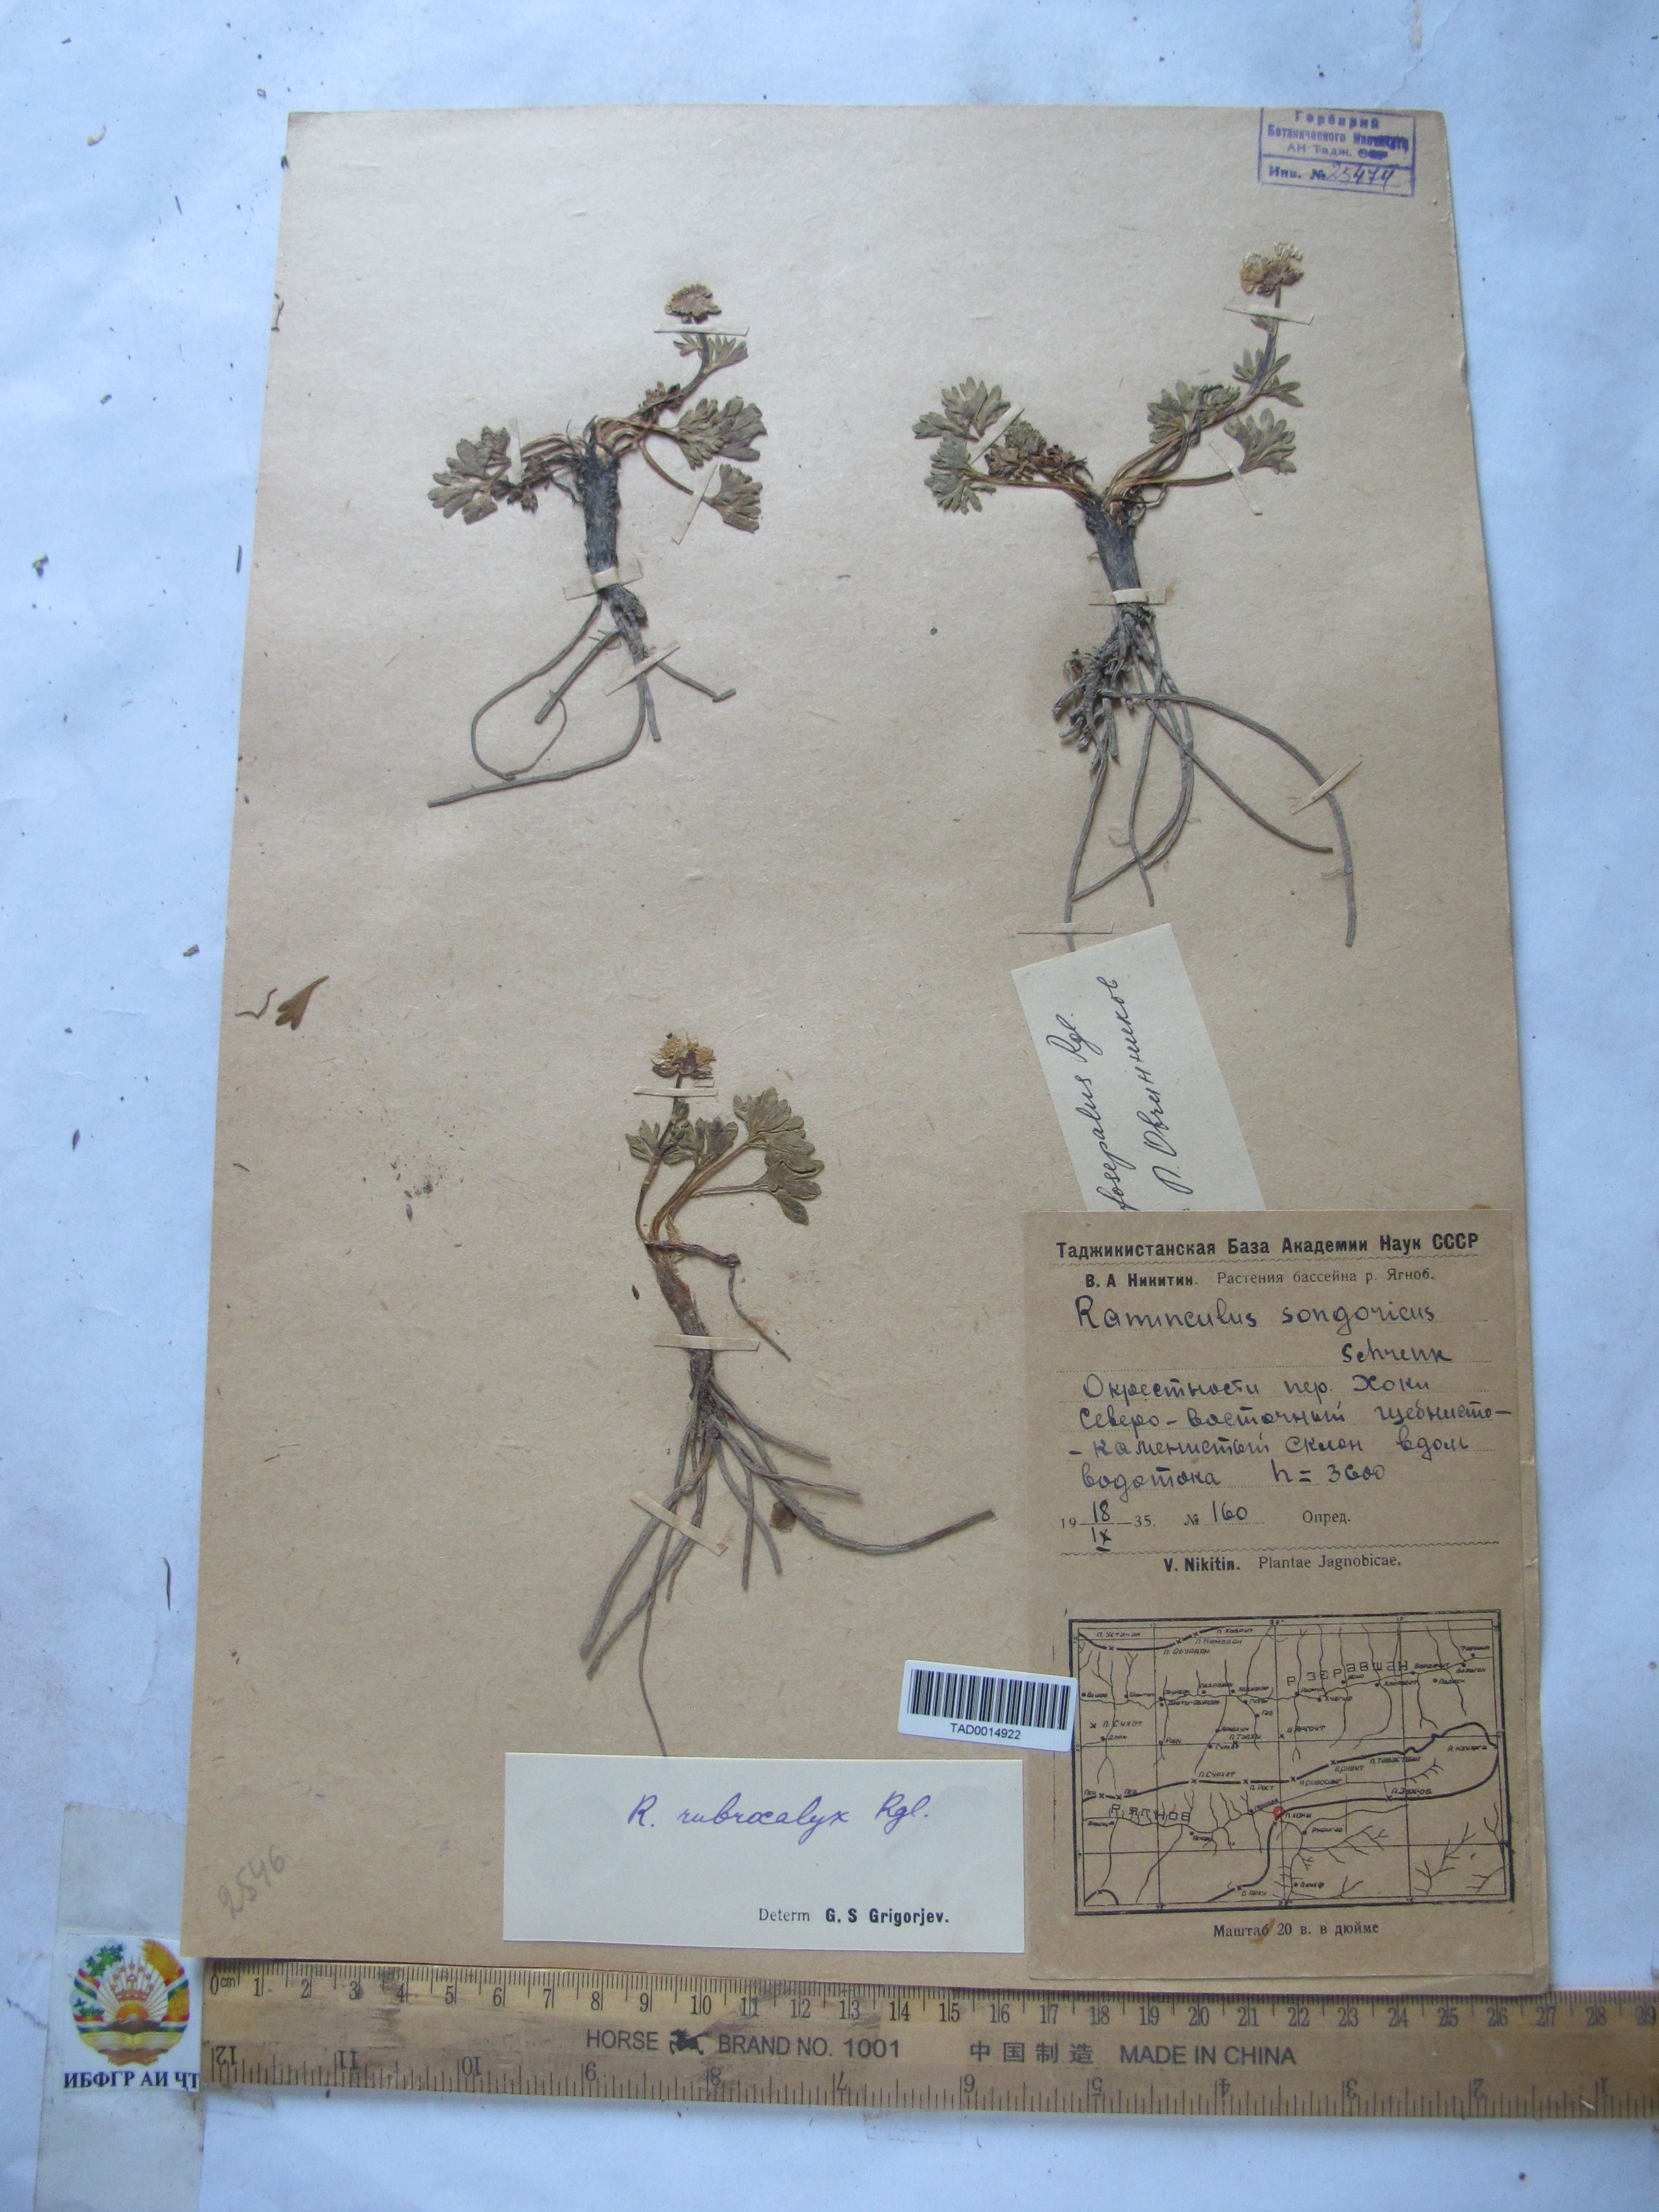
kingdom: Plantae
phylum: Tracheophyta
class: Magnoliopsida
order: Ranunculales
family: Ranunculaceae
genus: Ranunculus
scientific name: Ranunculus songaricus
